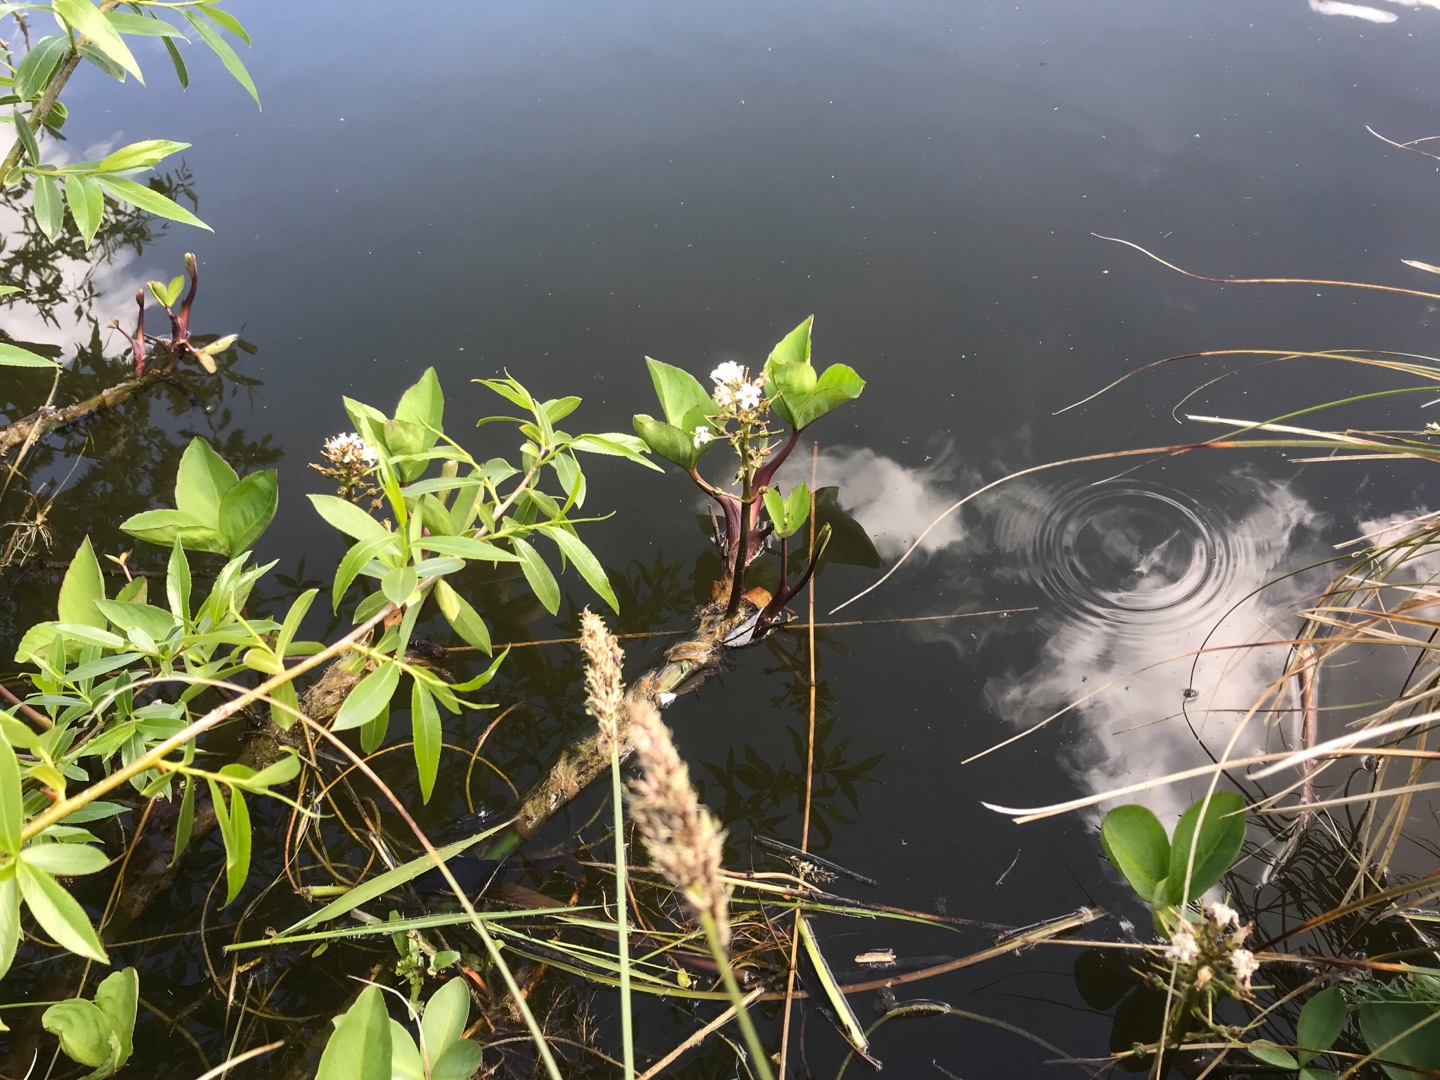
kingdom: Plantae
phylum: Tracheophyta
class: Magnoliopsida
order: Asterales
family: Menyanthaceae
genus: Menyanthes
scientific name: Menyanthes trifoliata
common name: Bukkeblad
